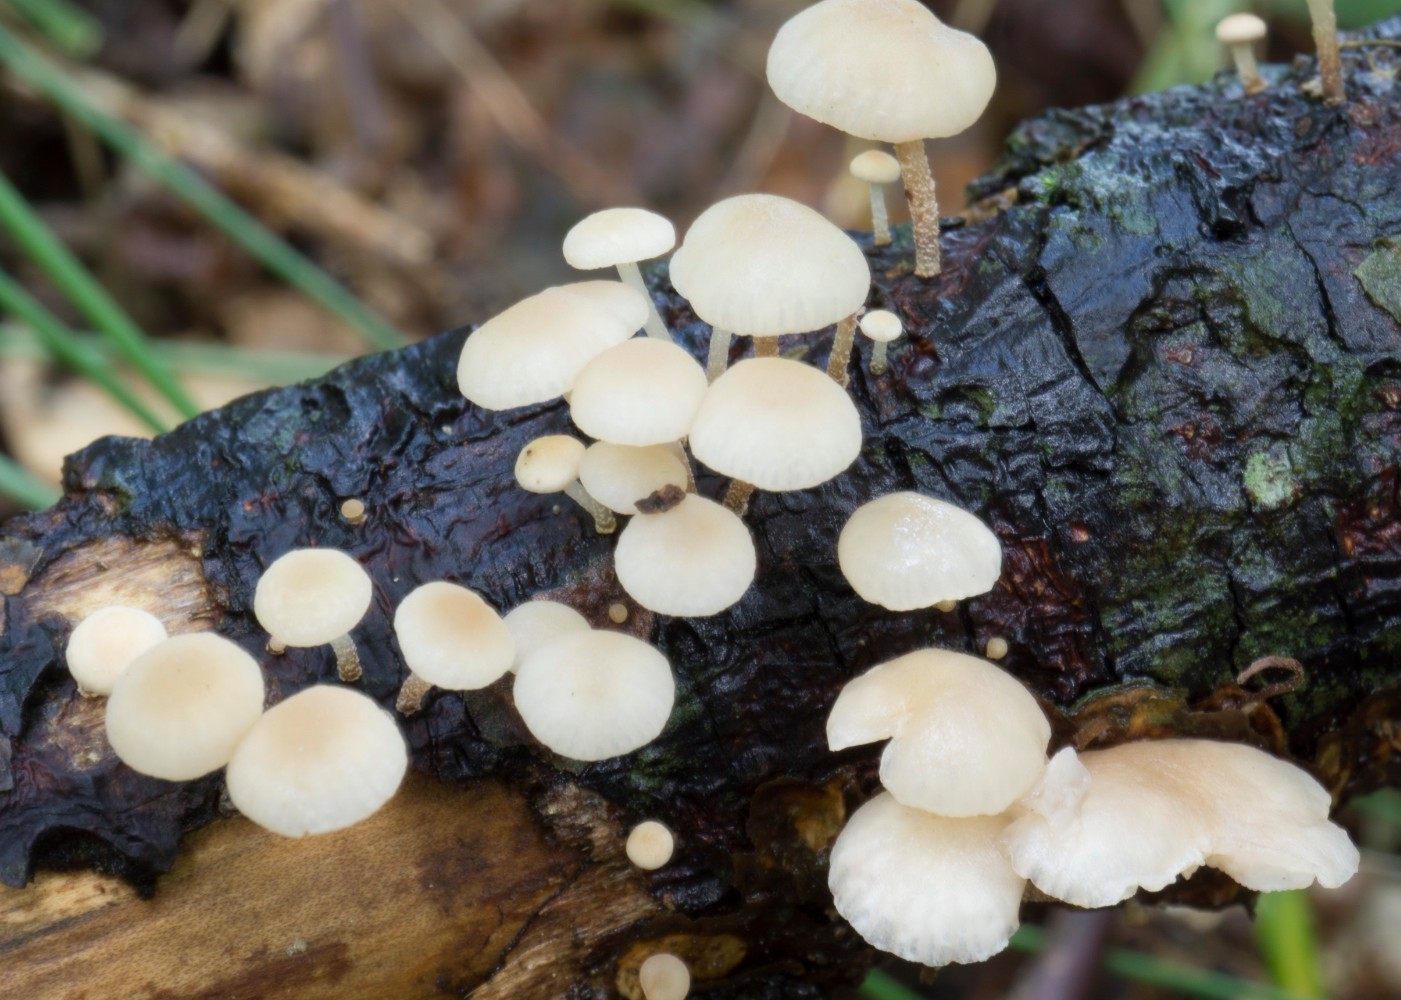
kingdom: Fungi
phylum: Basidiomycota
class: Agaricomycetes
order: Agaricales
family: Omphalotaceae
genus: Collybiopsis
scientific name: Collybiopsis ramealis
